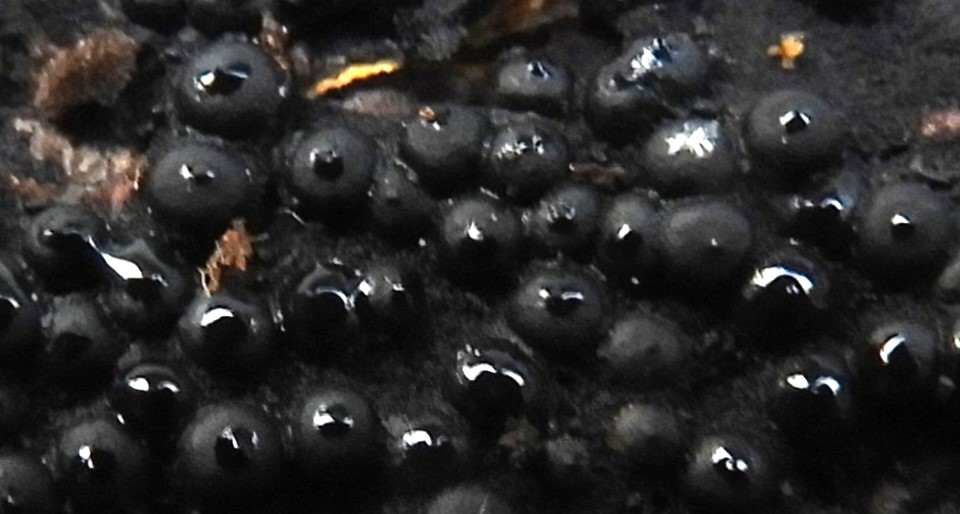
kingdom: Fungi
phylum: Ascomycota
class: Sordariomycetes
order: Xylariales
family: Xylariaceae
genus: Rosellinia
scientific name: Rosellinia
